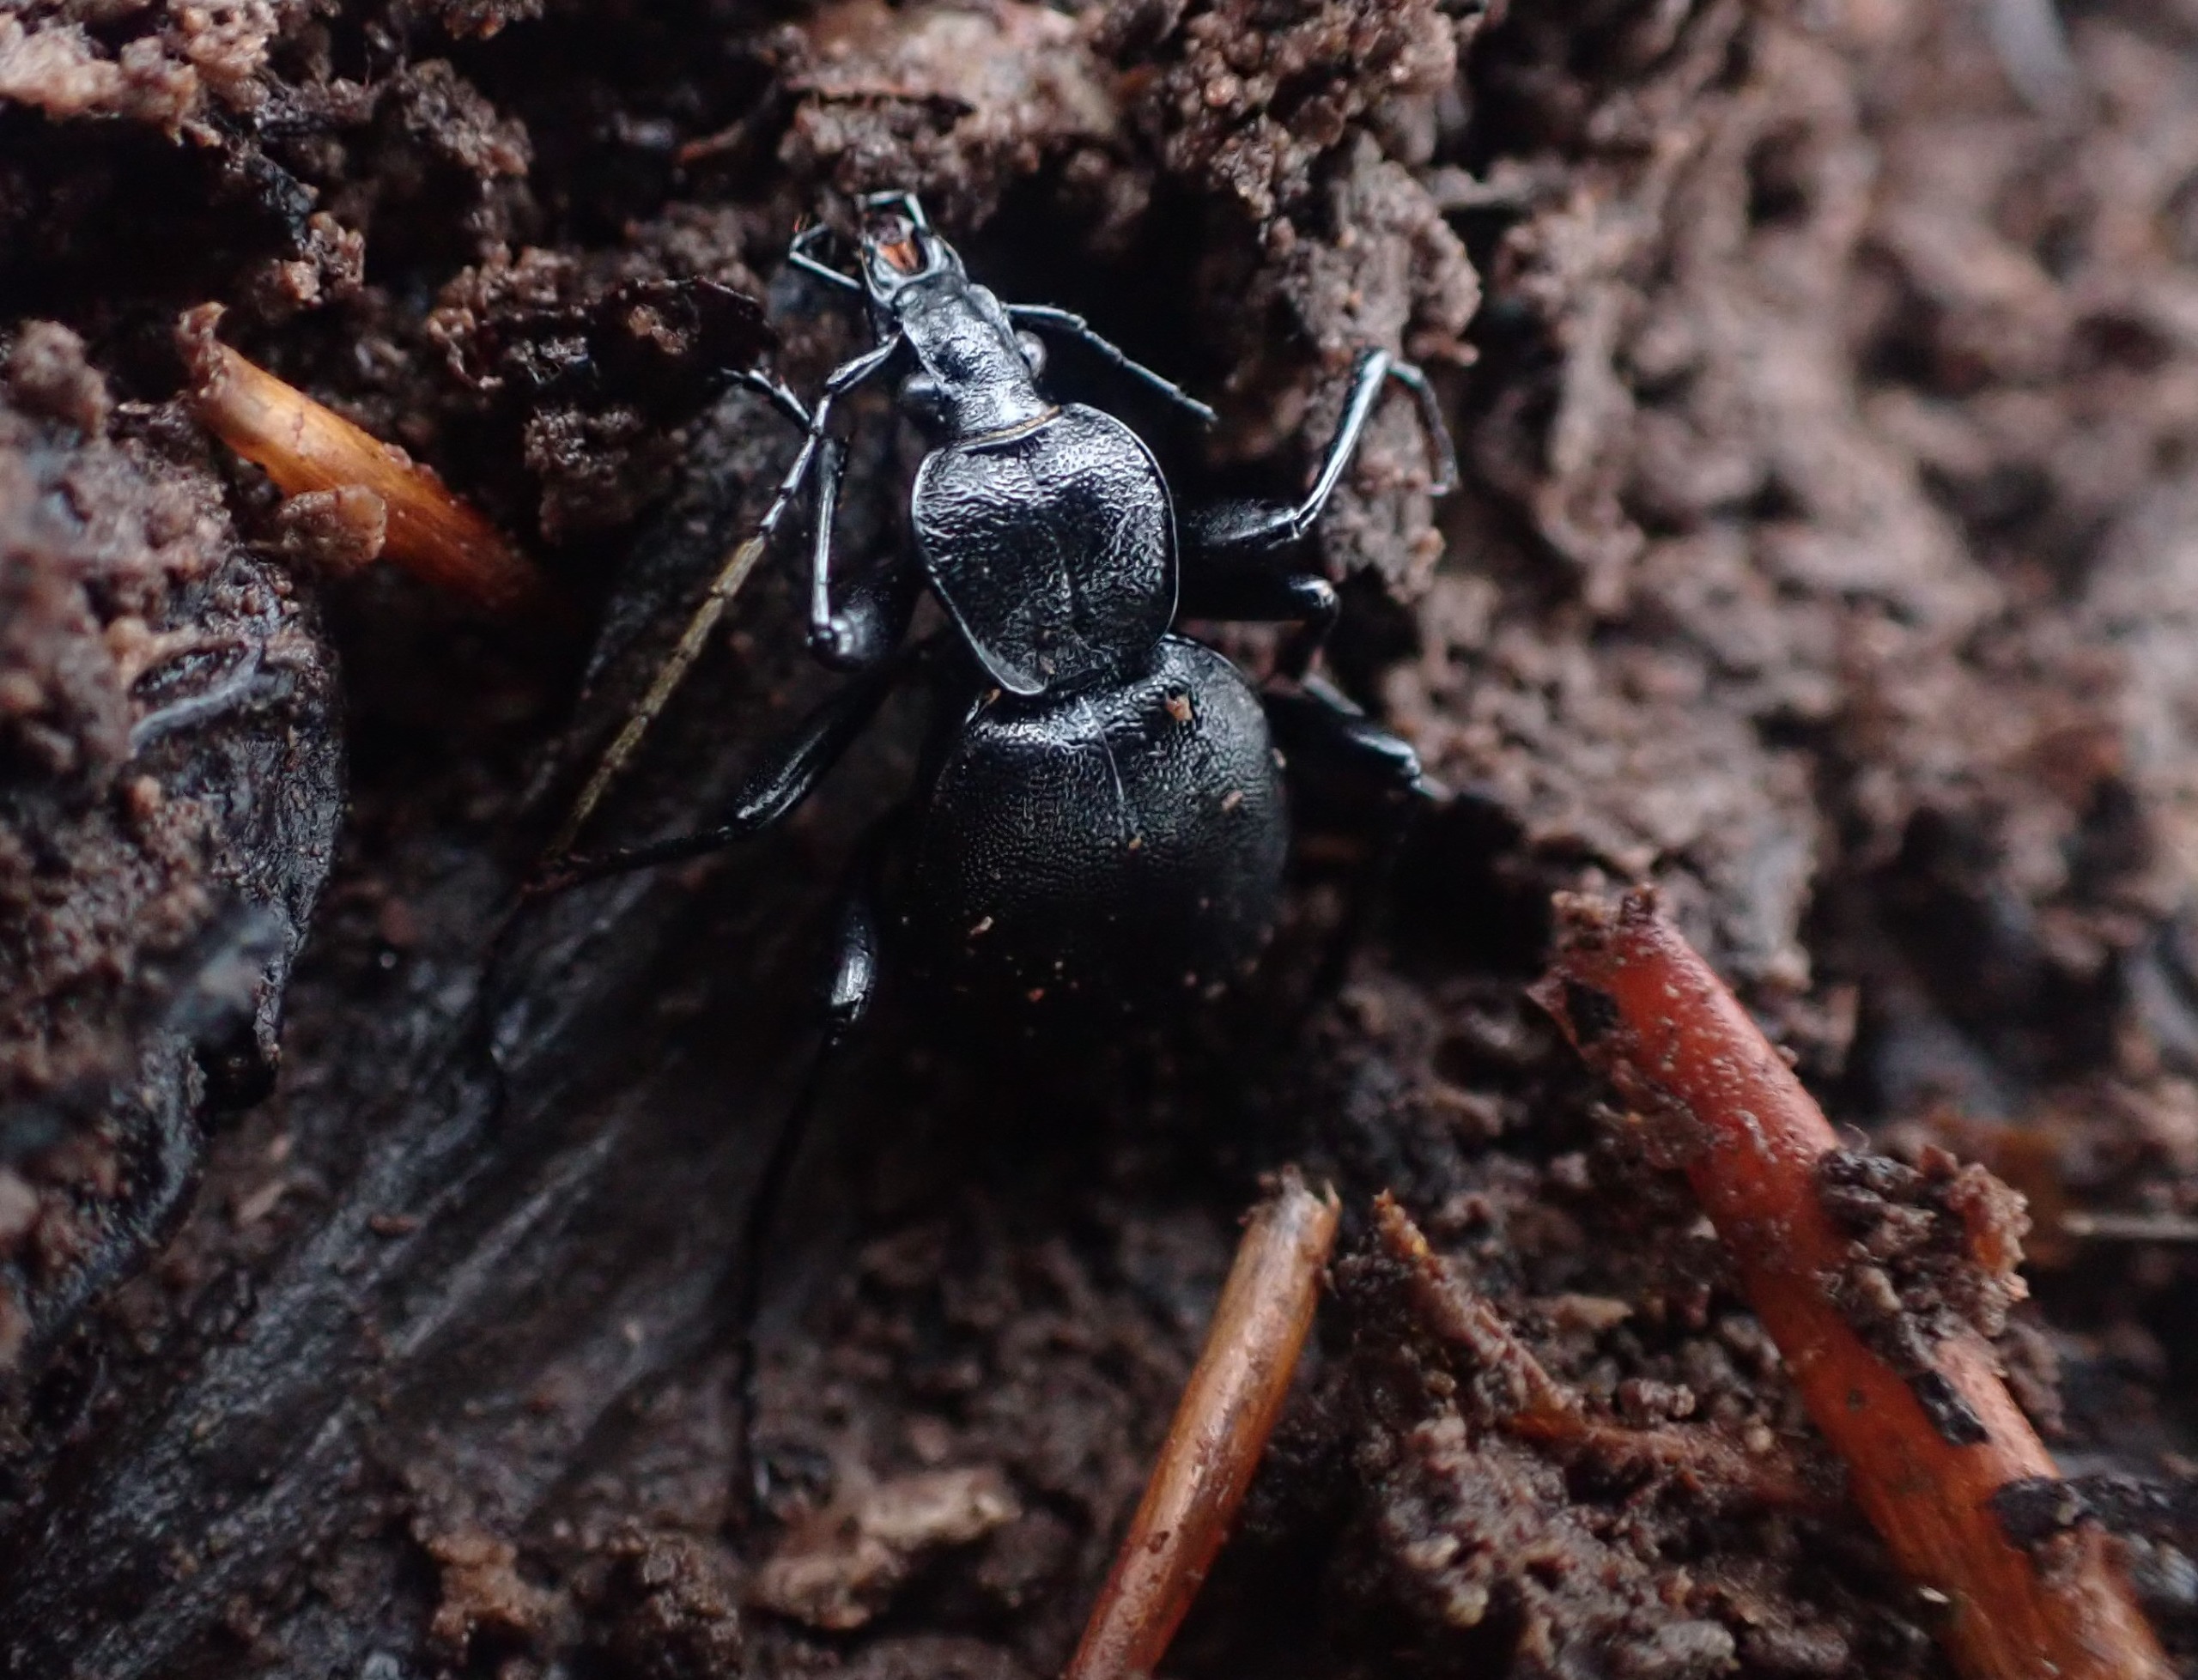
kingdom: Animalia
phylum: Arthropoda
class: Insecta
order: Coleoptera
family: Carabidae
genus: Cychrus
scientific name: Cychrus caraboides
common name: Sneglerøver
